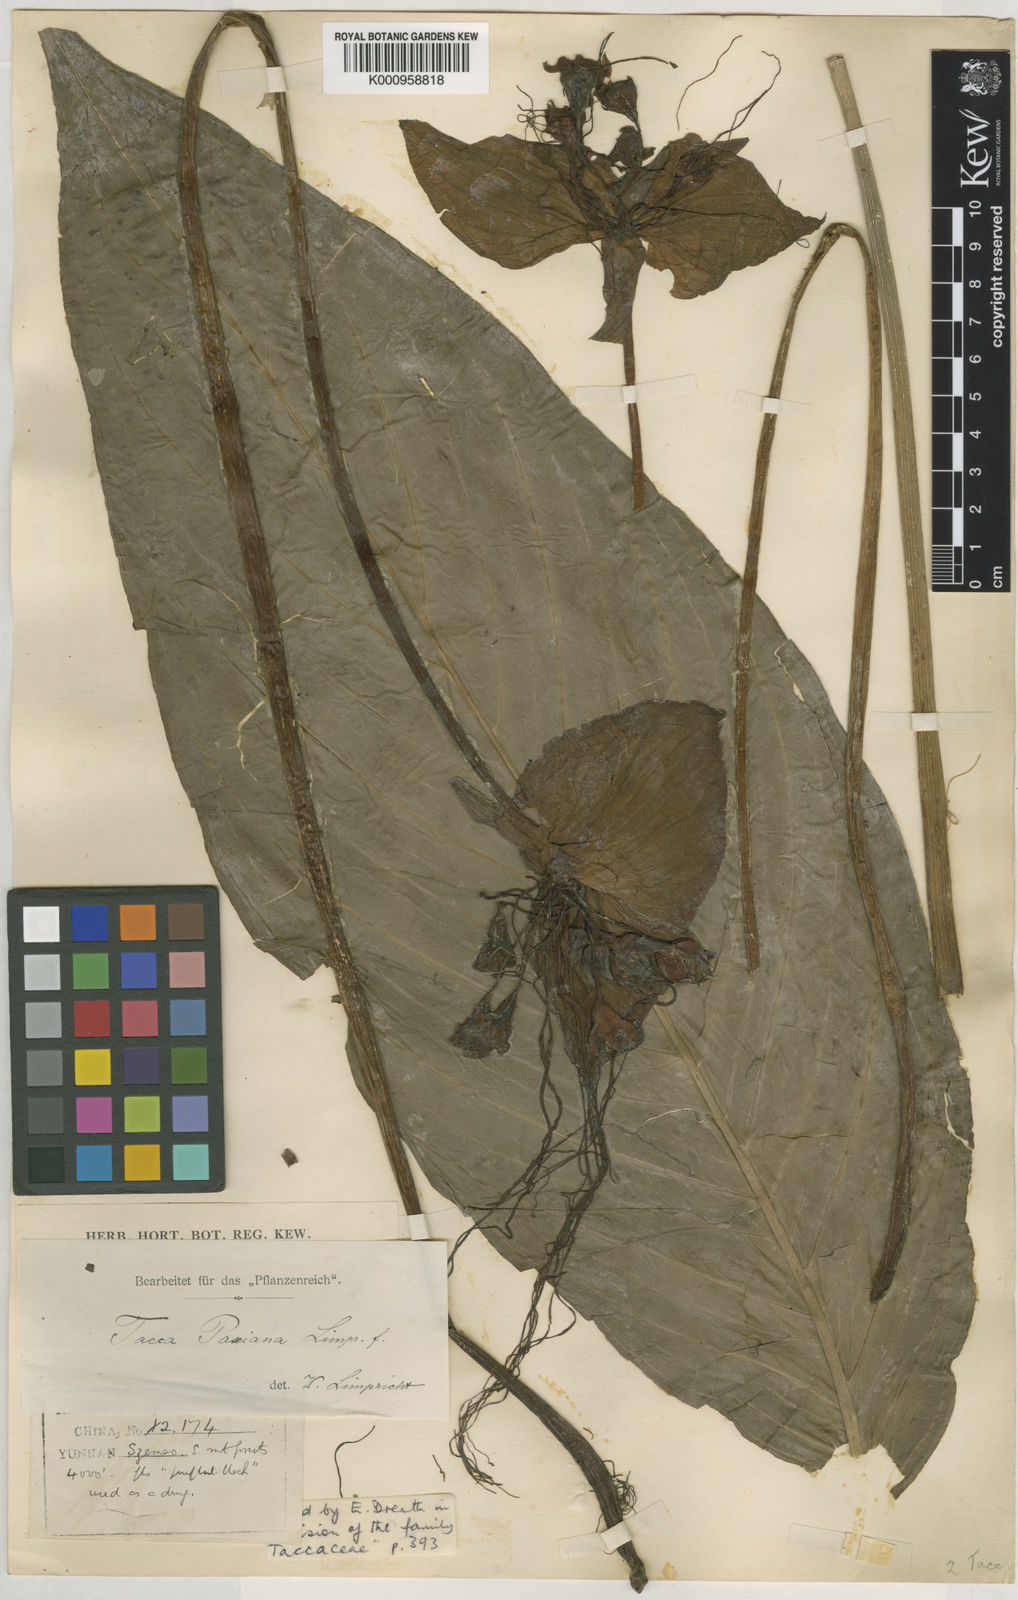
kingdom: Plantae
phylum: Tracheophyta
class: Liliopsida
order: Dioscoreales
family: Dioscoreaceae
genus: Tacca
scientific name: Tacca
